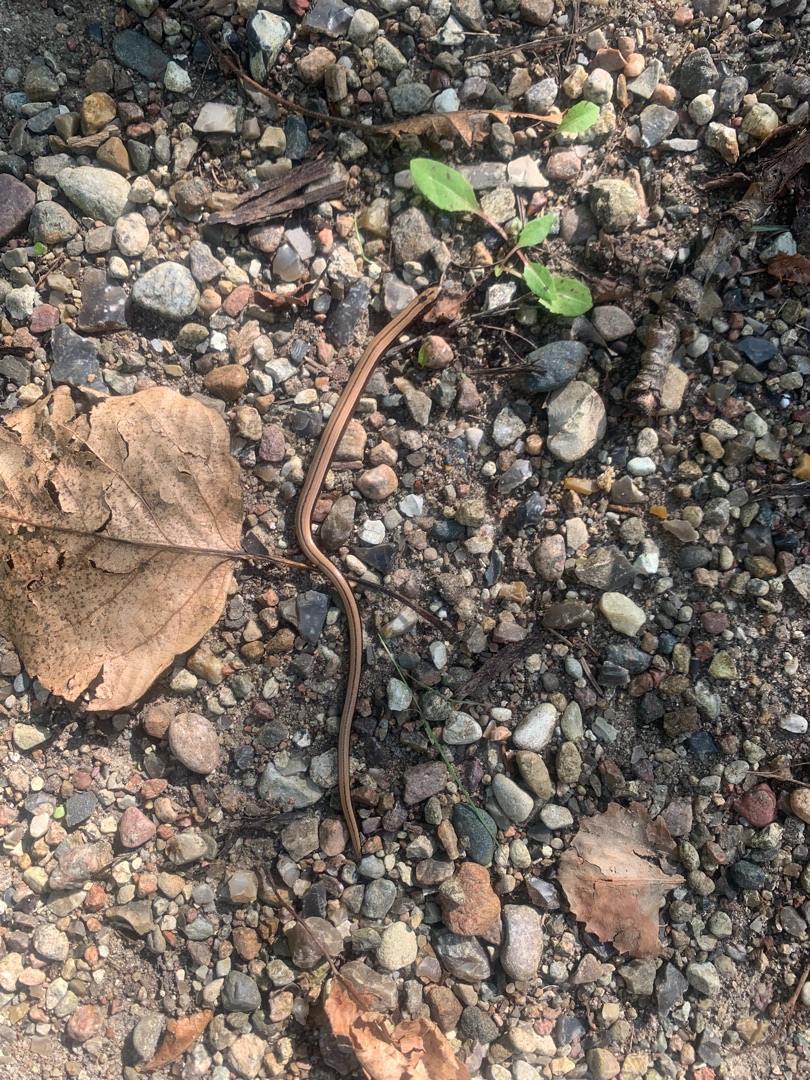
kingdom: Animalia
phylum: Chordata
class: Squamata
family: Anguidae
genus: Anguis
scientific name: Anguis fragilis
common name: Stålorm
